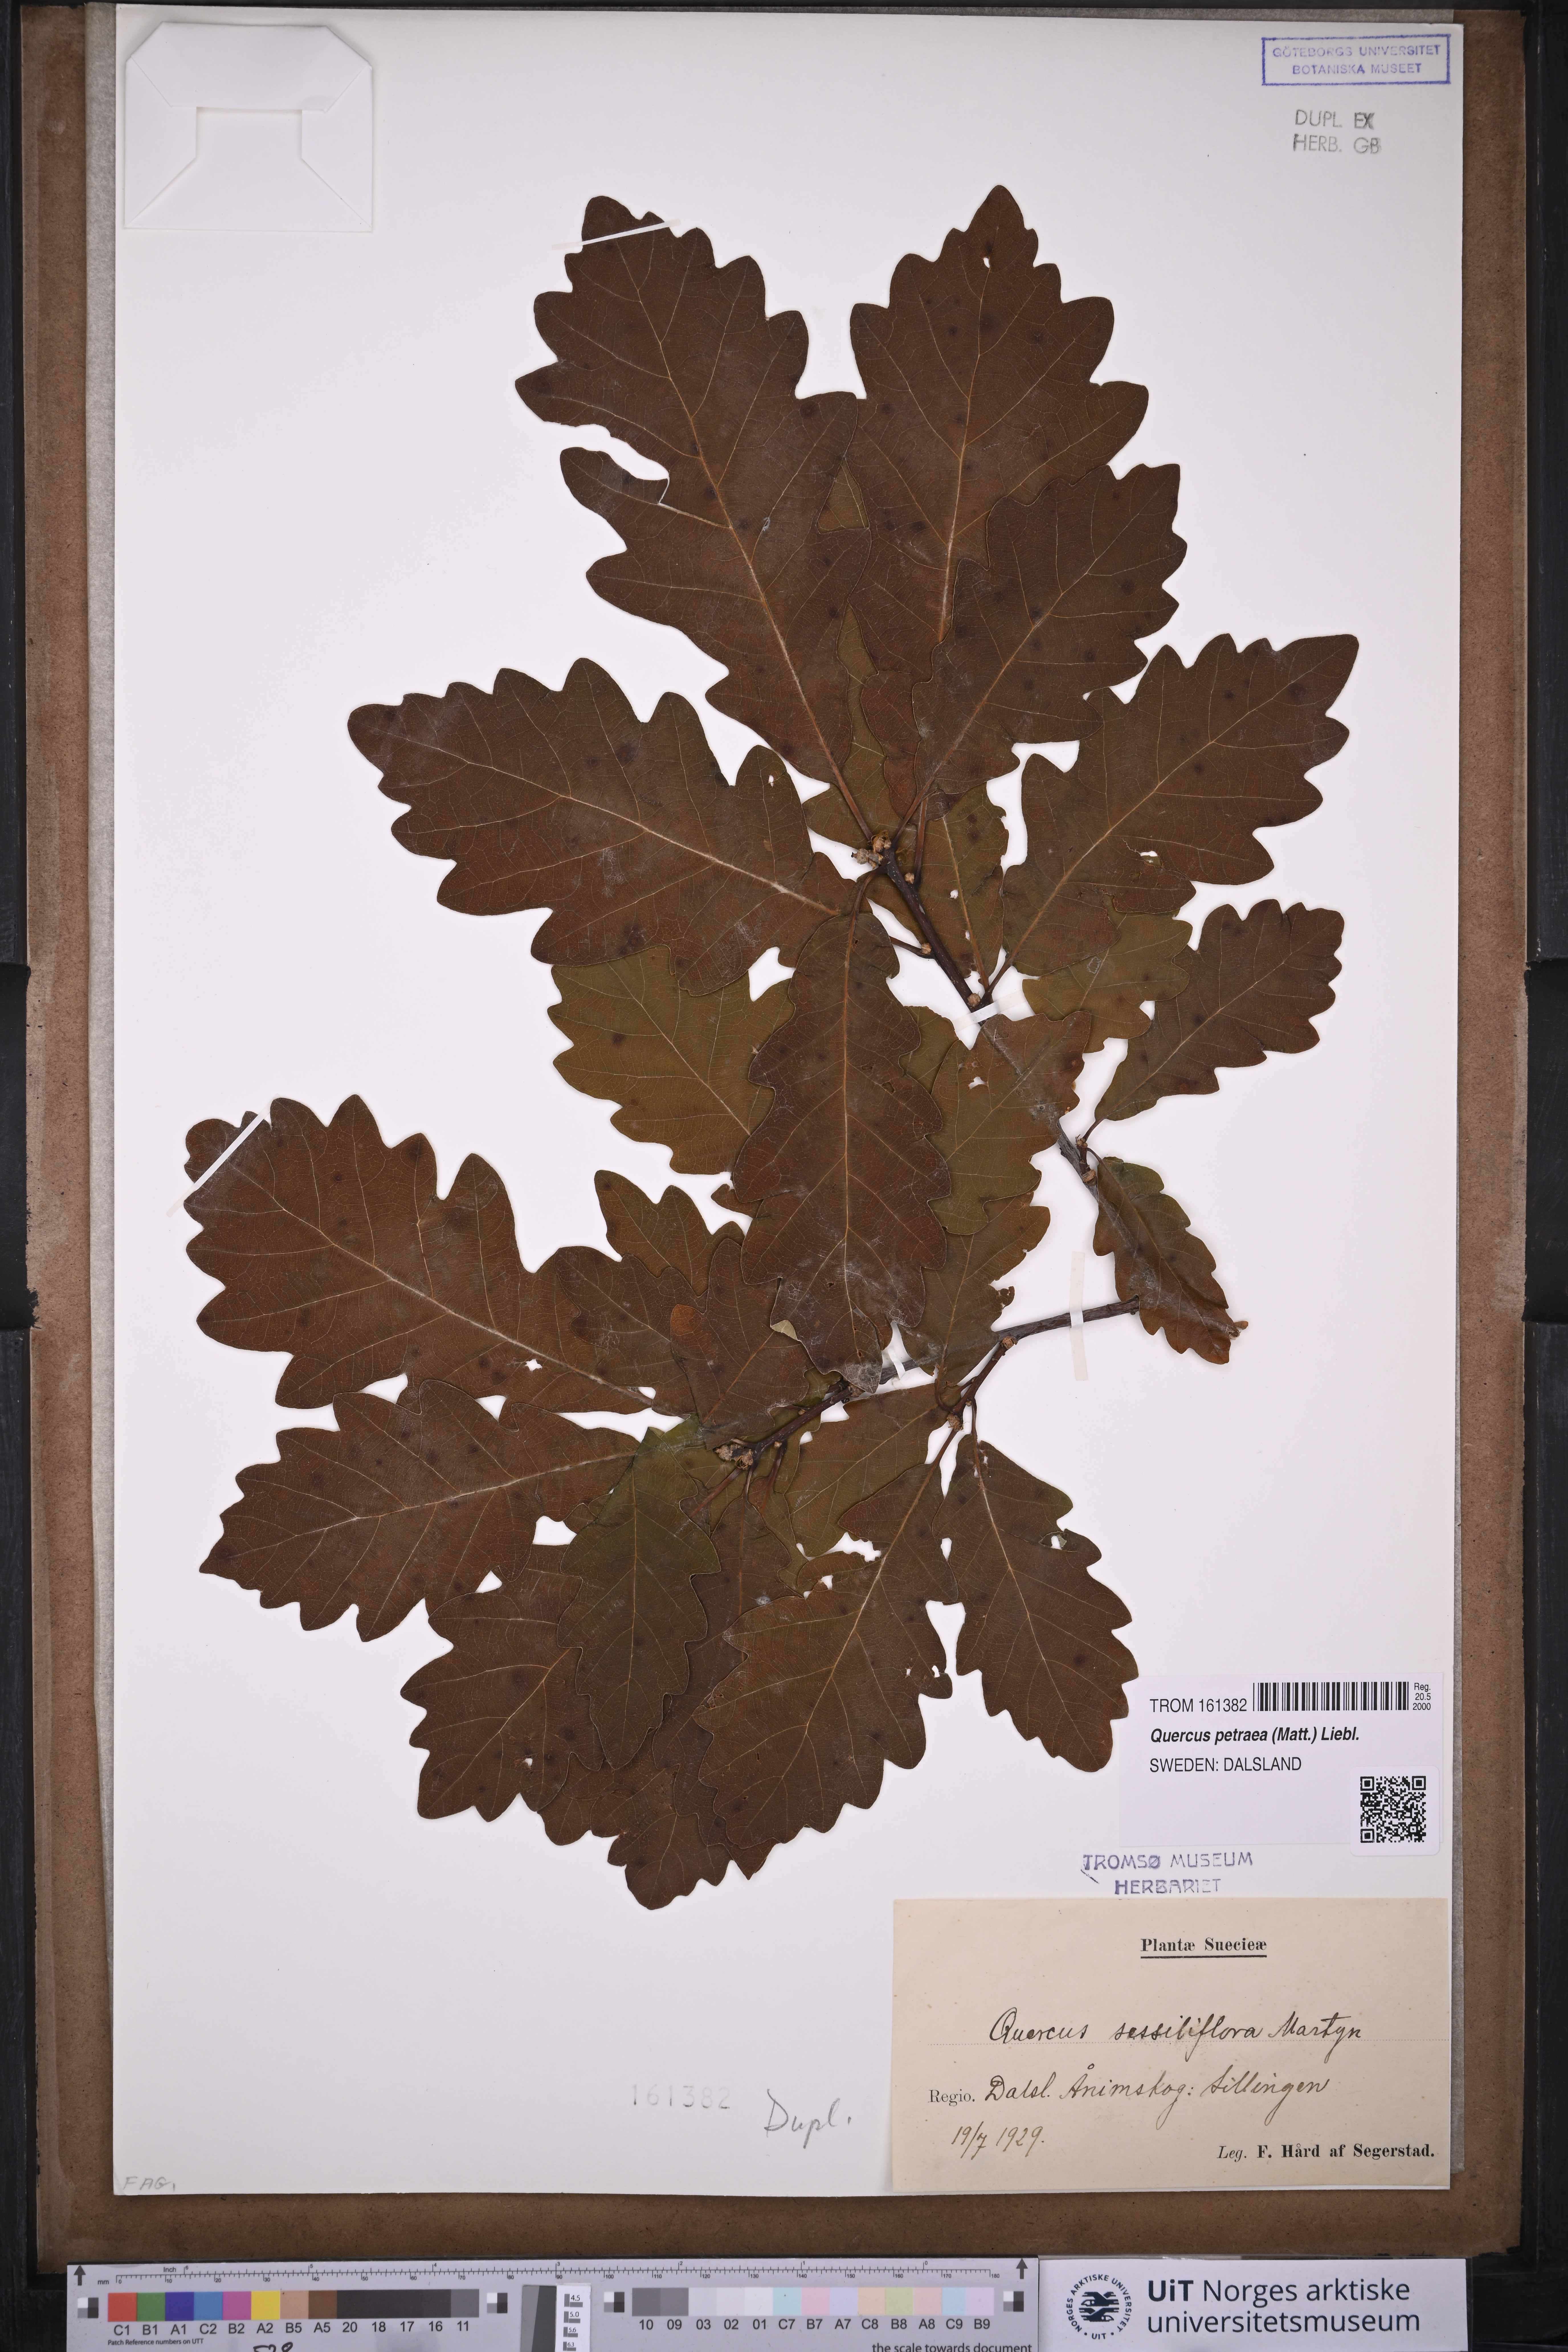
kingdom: Plantae
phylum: Tracheophyta
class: Magnoliopsida
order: Fagales
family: Fagaceae
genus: Quercus
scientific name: Quercus petraea
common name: Sessile oak
